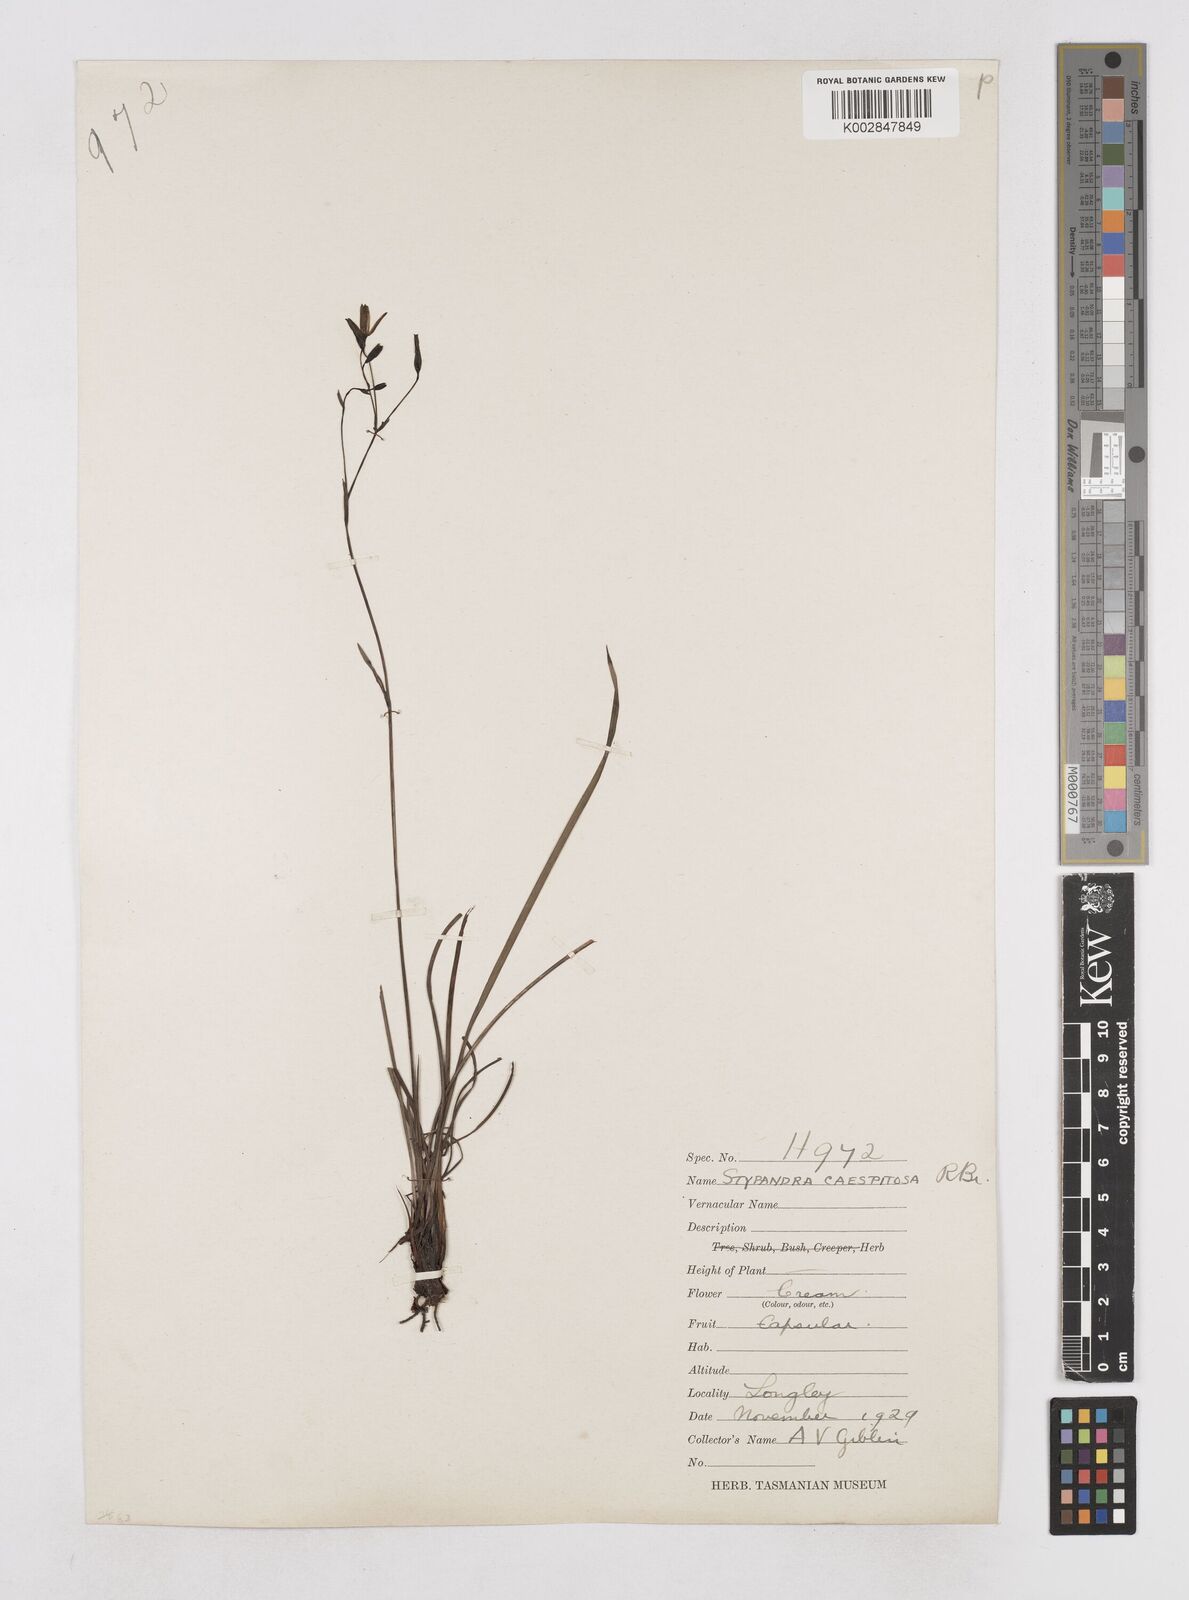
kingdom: Plantae
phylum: Tracheophyta
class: Liliopsida
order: Asparagales
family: Asphodelaceae
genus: Thelionema
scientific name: Thelionema caespitosum
